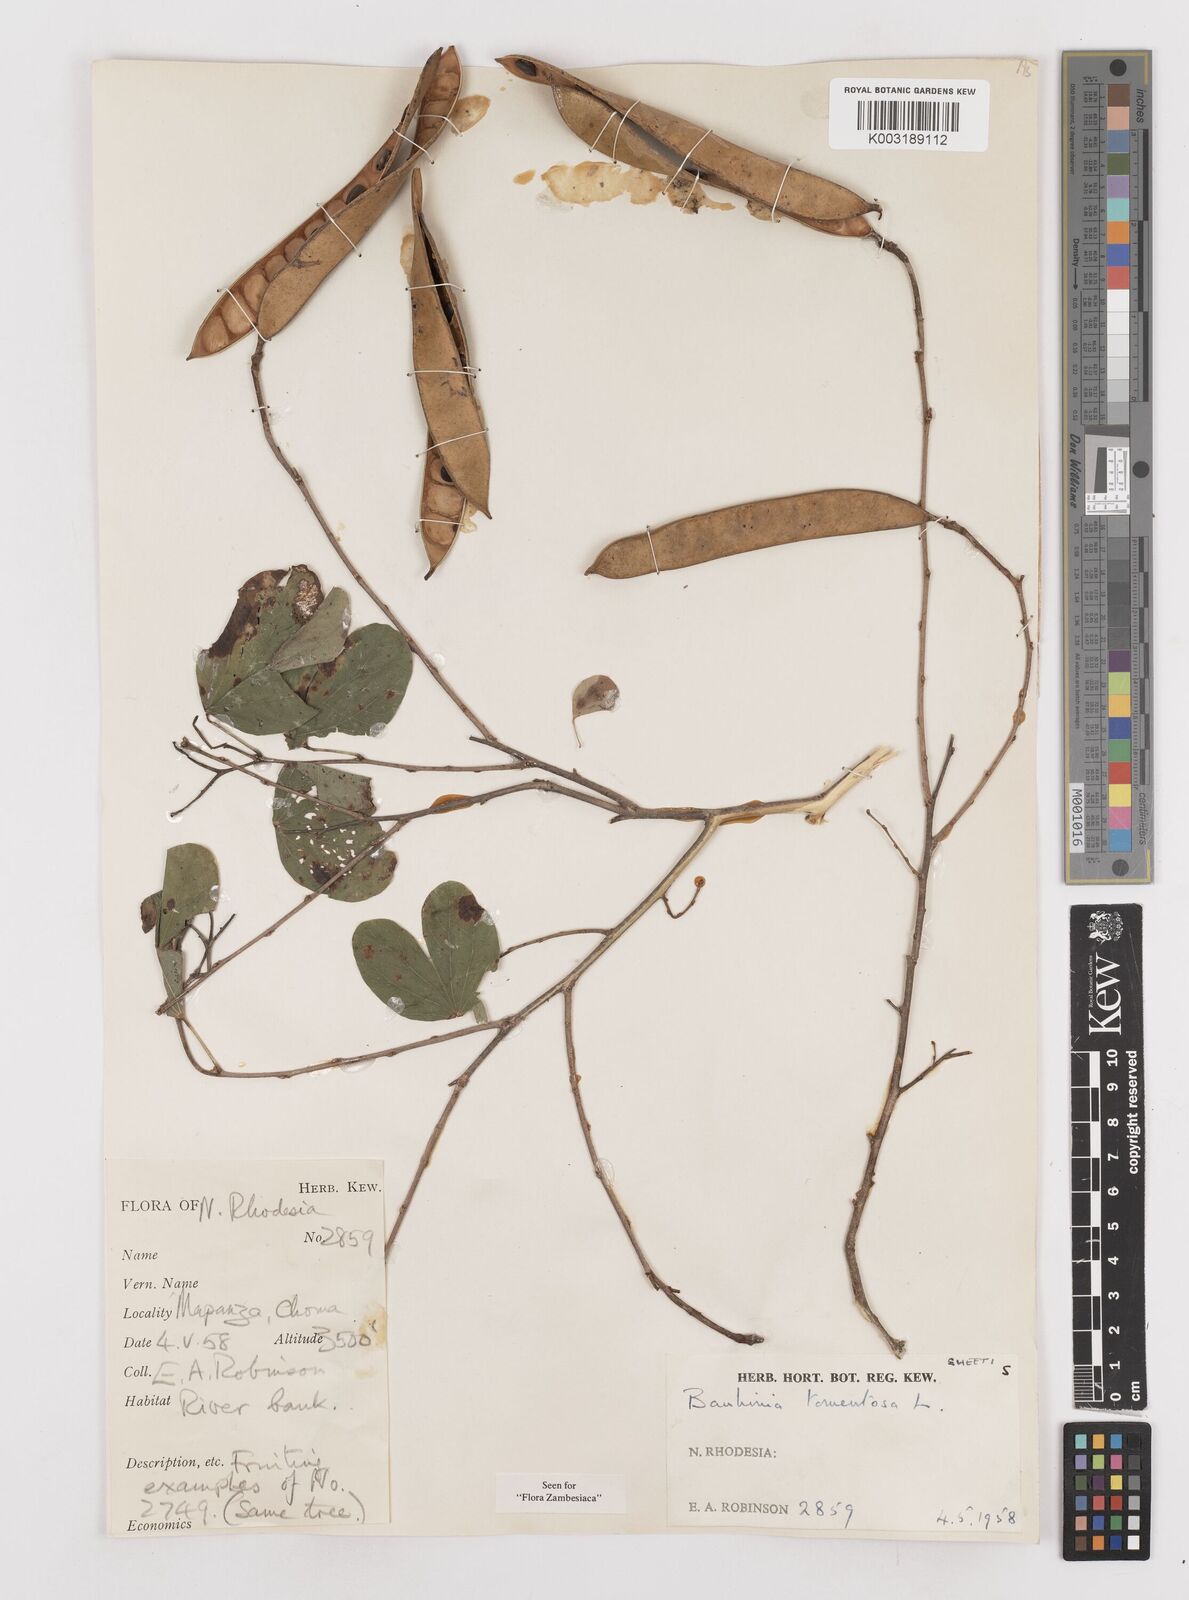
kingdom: Plantae
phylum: Tracheophyta
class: Magnoliopsida
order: Fabales
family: Fabaceae
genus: Bauhinia
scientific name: Bauhinia tomentosa
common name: Bell bauhinia
